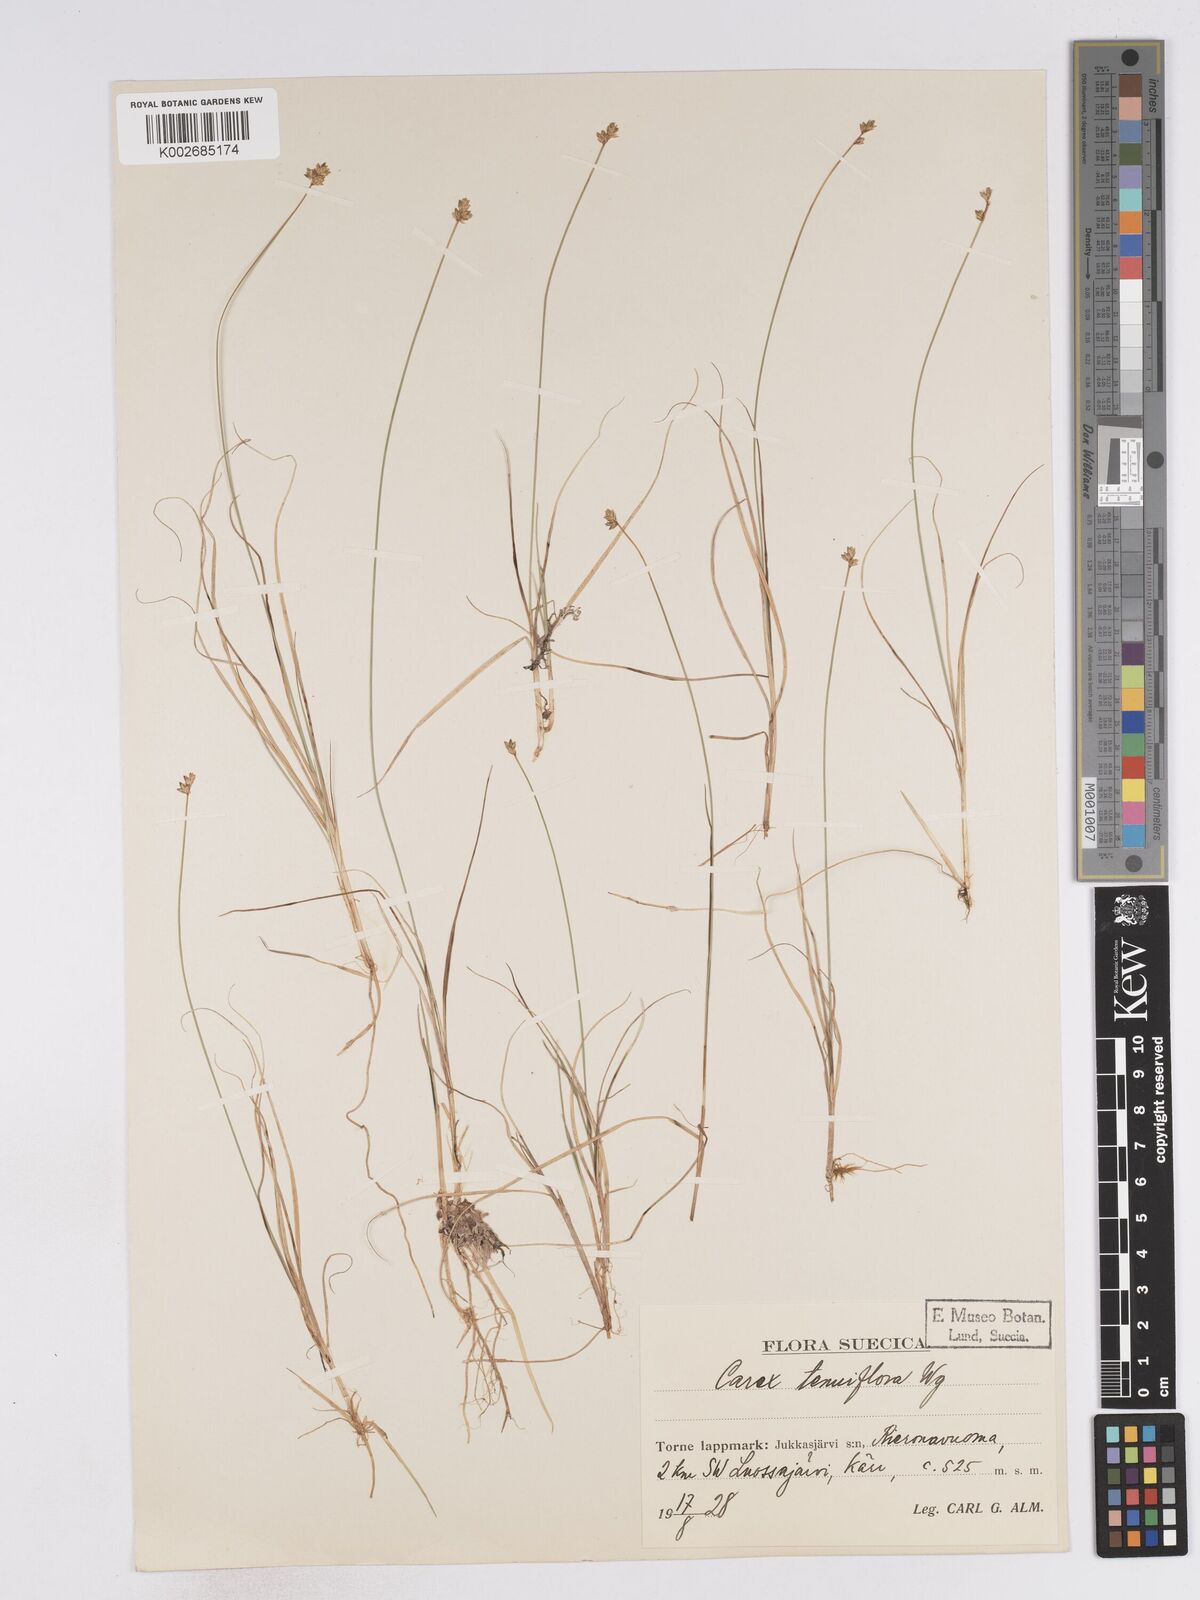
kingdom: Plantae
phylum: Tracheophyta
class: Liliopsida
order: Poales
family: Cyperaceae
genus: Carex
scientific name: Carex tenuiflora
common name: Sparse-flowered sedge
